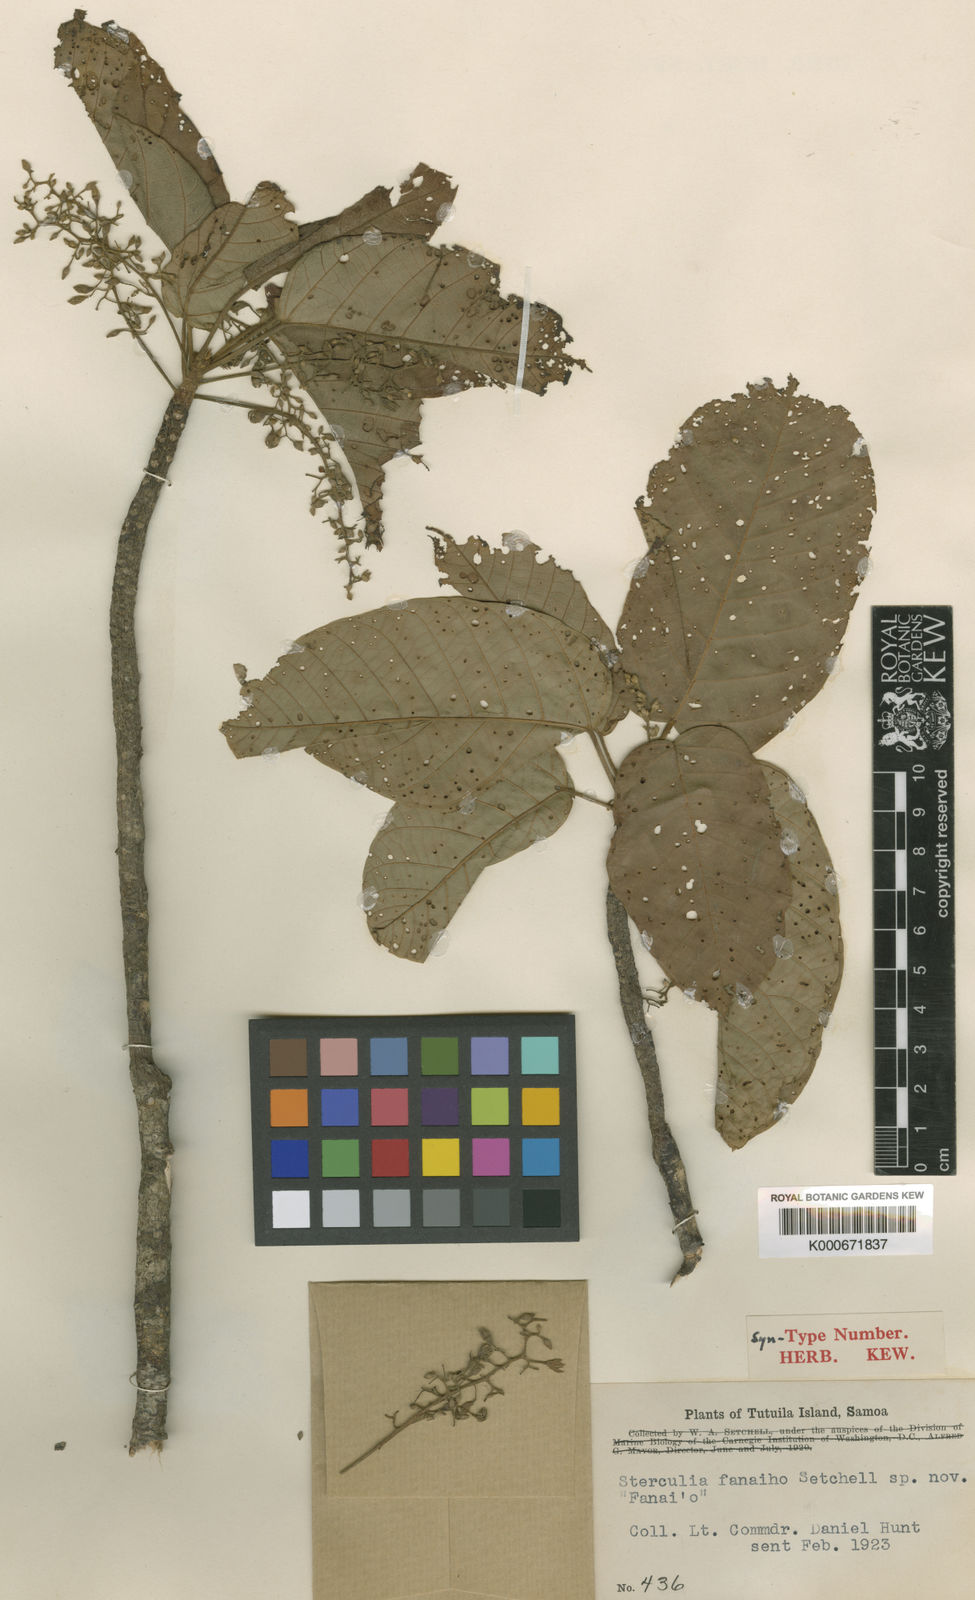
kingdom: Plantae
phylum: Tracheophyta
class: Magnoliopsida
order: Malvales
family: Malvaceae
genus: Sterculia
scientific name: Sterculia fanaiho
